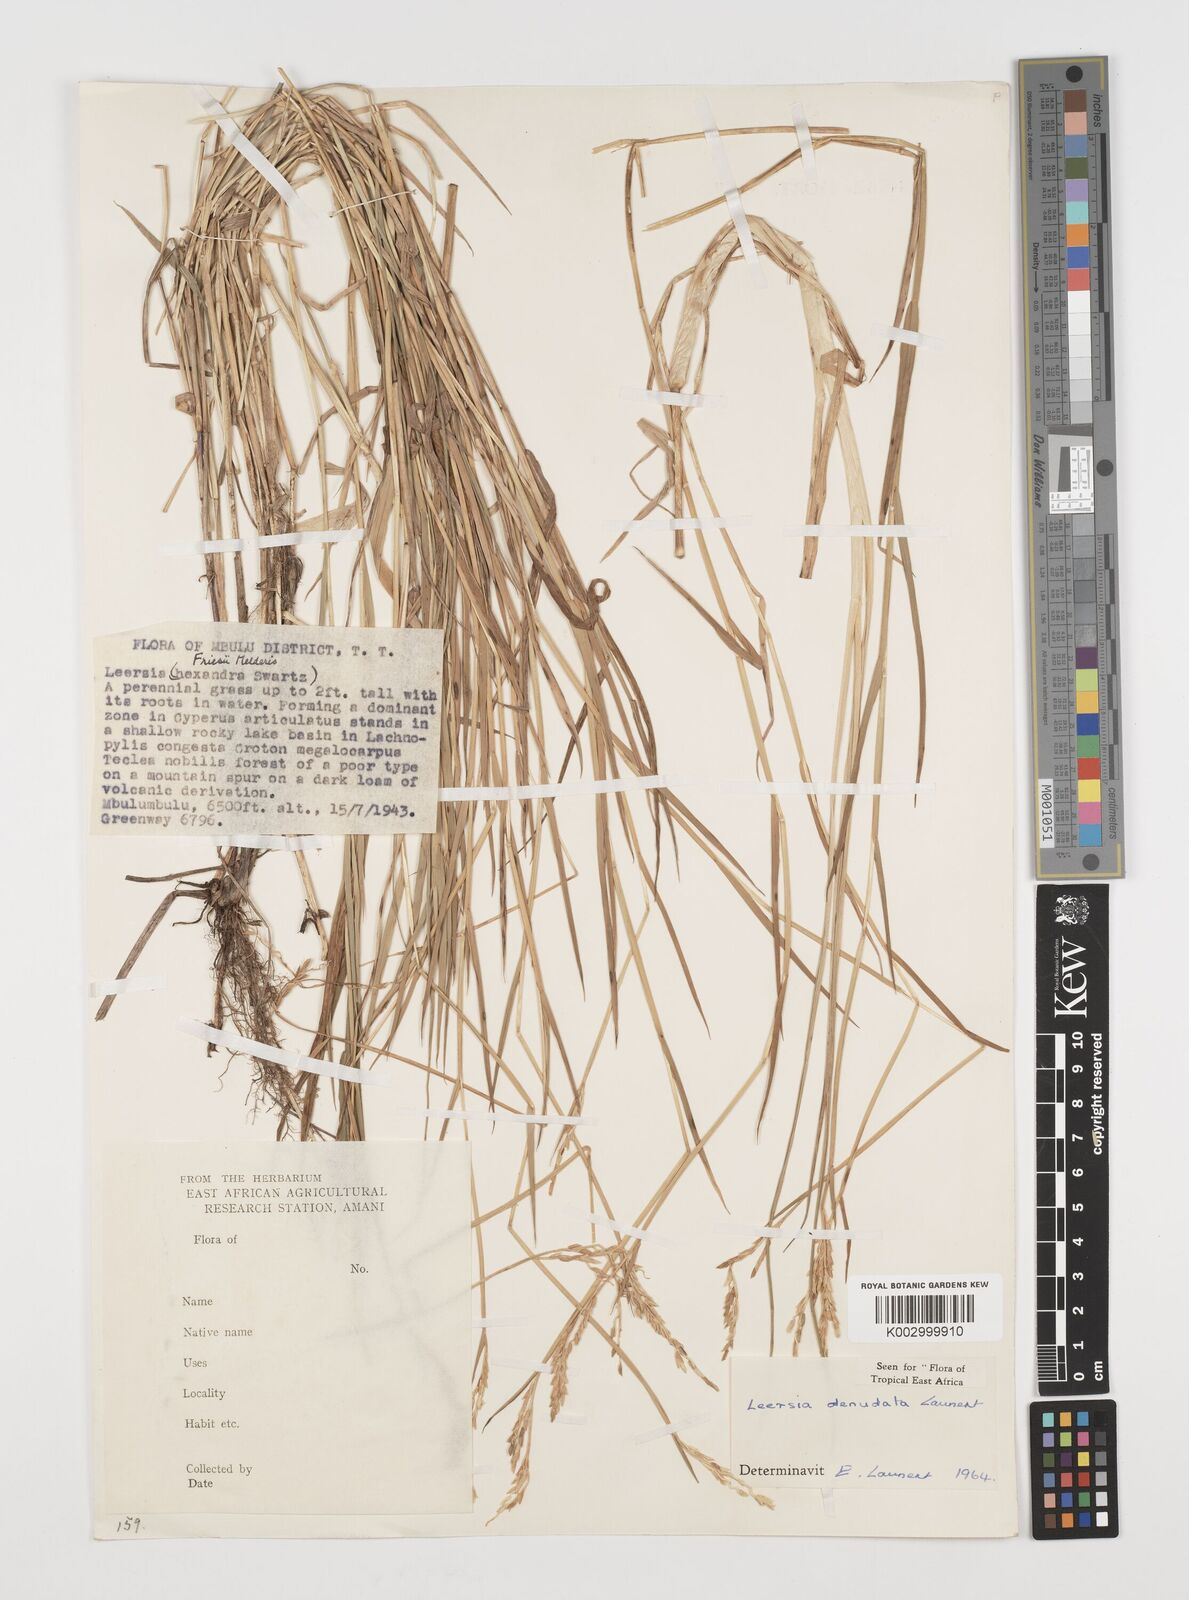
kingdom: Plantae
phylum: Tracheophyta
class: Liliopsida
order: Poales
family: Poaceae
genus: Leersia
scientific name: Leersia denudata
